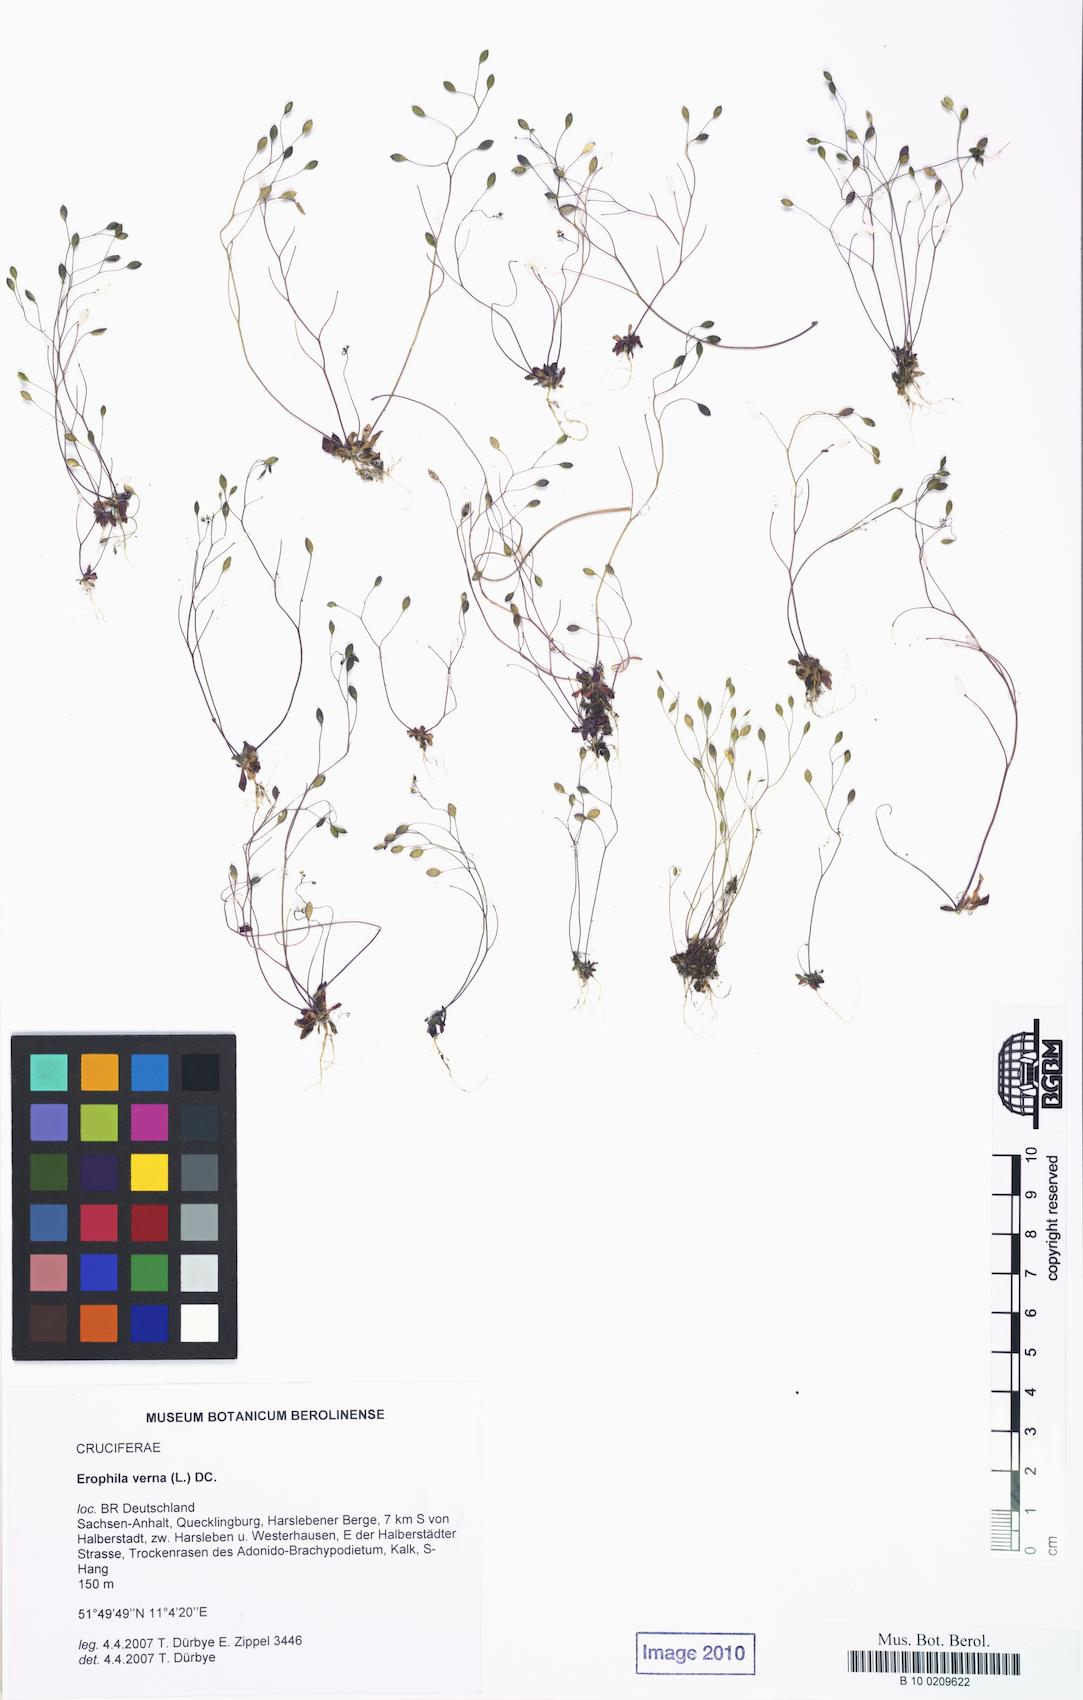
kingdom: Plantae
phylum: Tracheophyta
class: Magnoliopsida
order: Brassicales
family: Brassicaceae
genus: Draba
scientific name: Draba verna
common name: Spring draba
